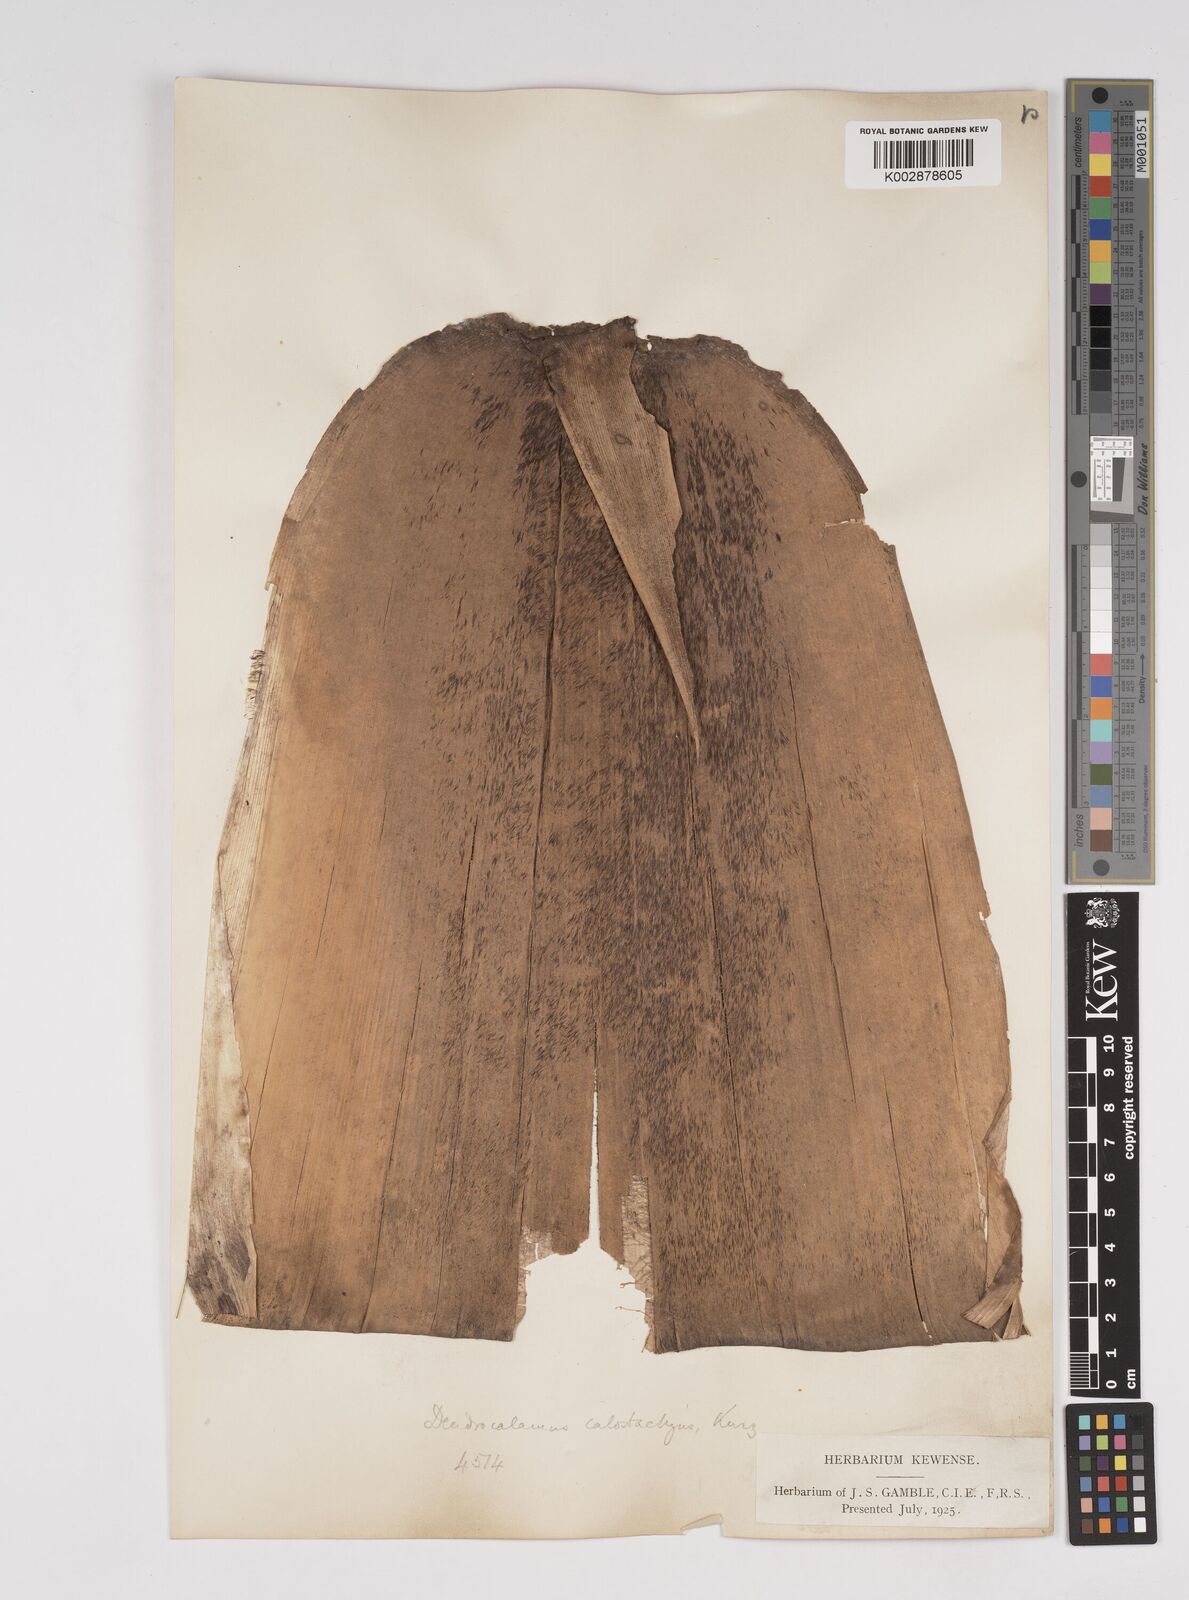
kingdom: Plantae
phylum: Tracheophyta
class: Liliopsida
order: Poales
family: Poaceae
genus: Dendrocalamus
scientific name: Dendrocalamus calostachyus
